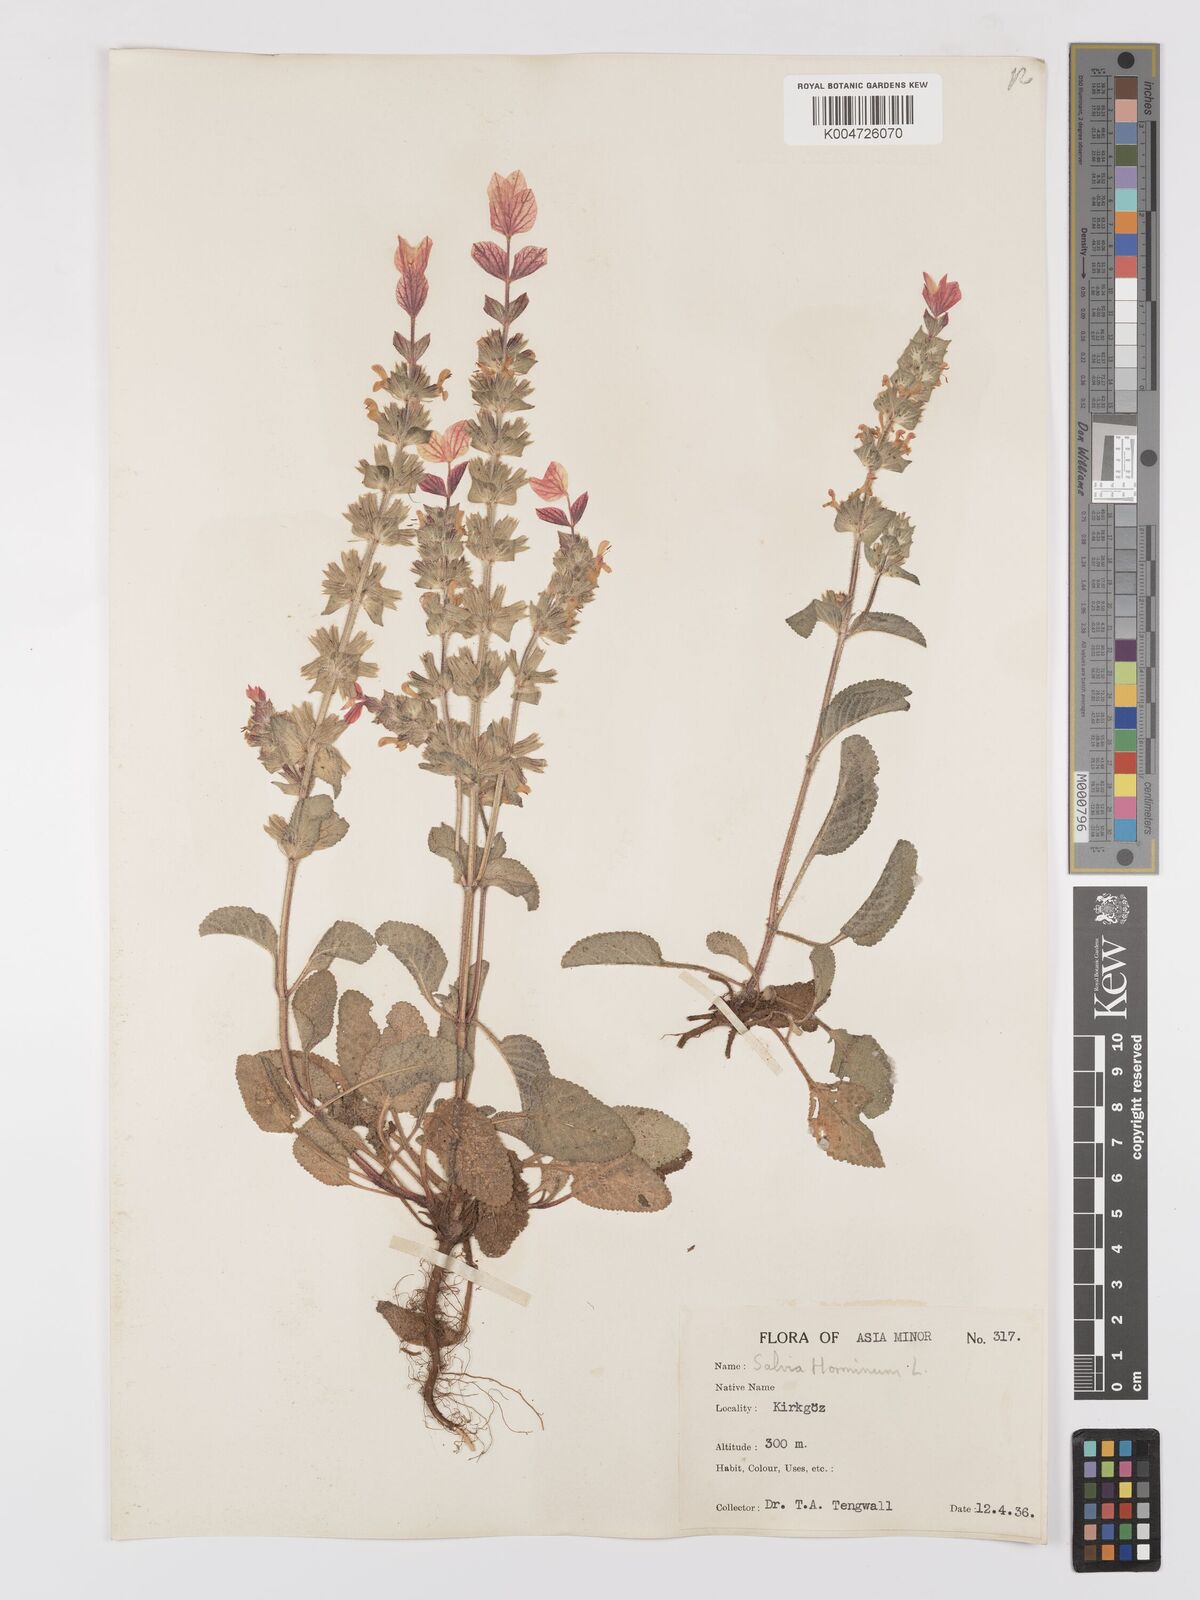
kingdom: Plantae
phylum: Tracheophyta
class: Magnoliopsida
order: Lamiales
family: Lamiaceae
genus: Salvia
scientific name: Salvia viridis
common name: Annual clary
